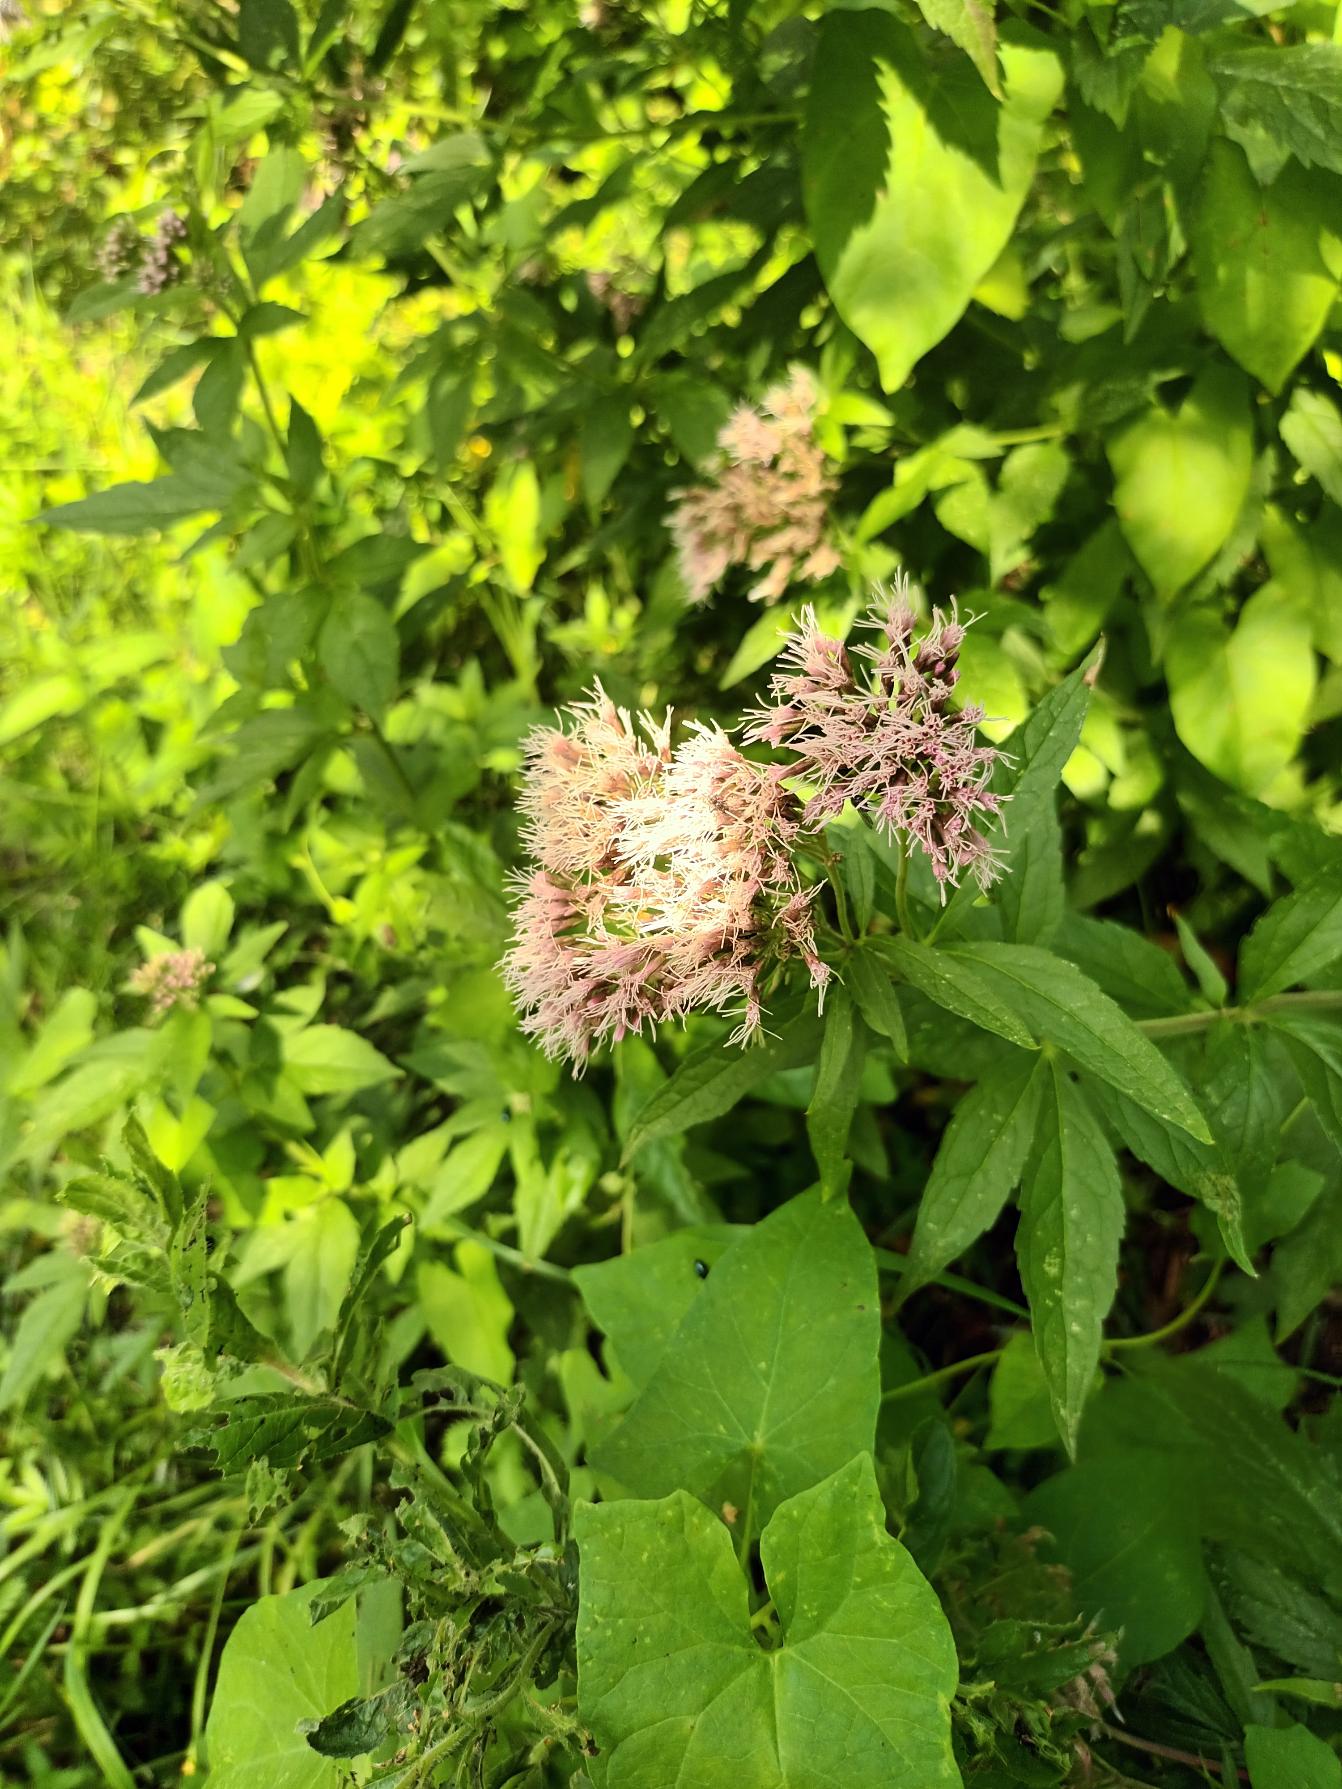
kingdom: Plantae
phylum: Tracheophyta
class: Magnoliopsida
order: Asterales
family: Asteraceae
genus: Eupatorium
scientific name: Eupatorium cannabinum
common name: Hjortetrøst
